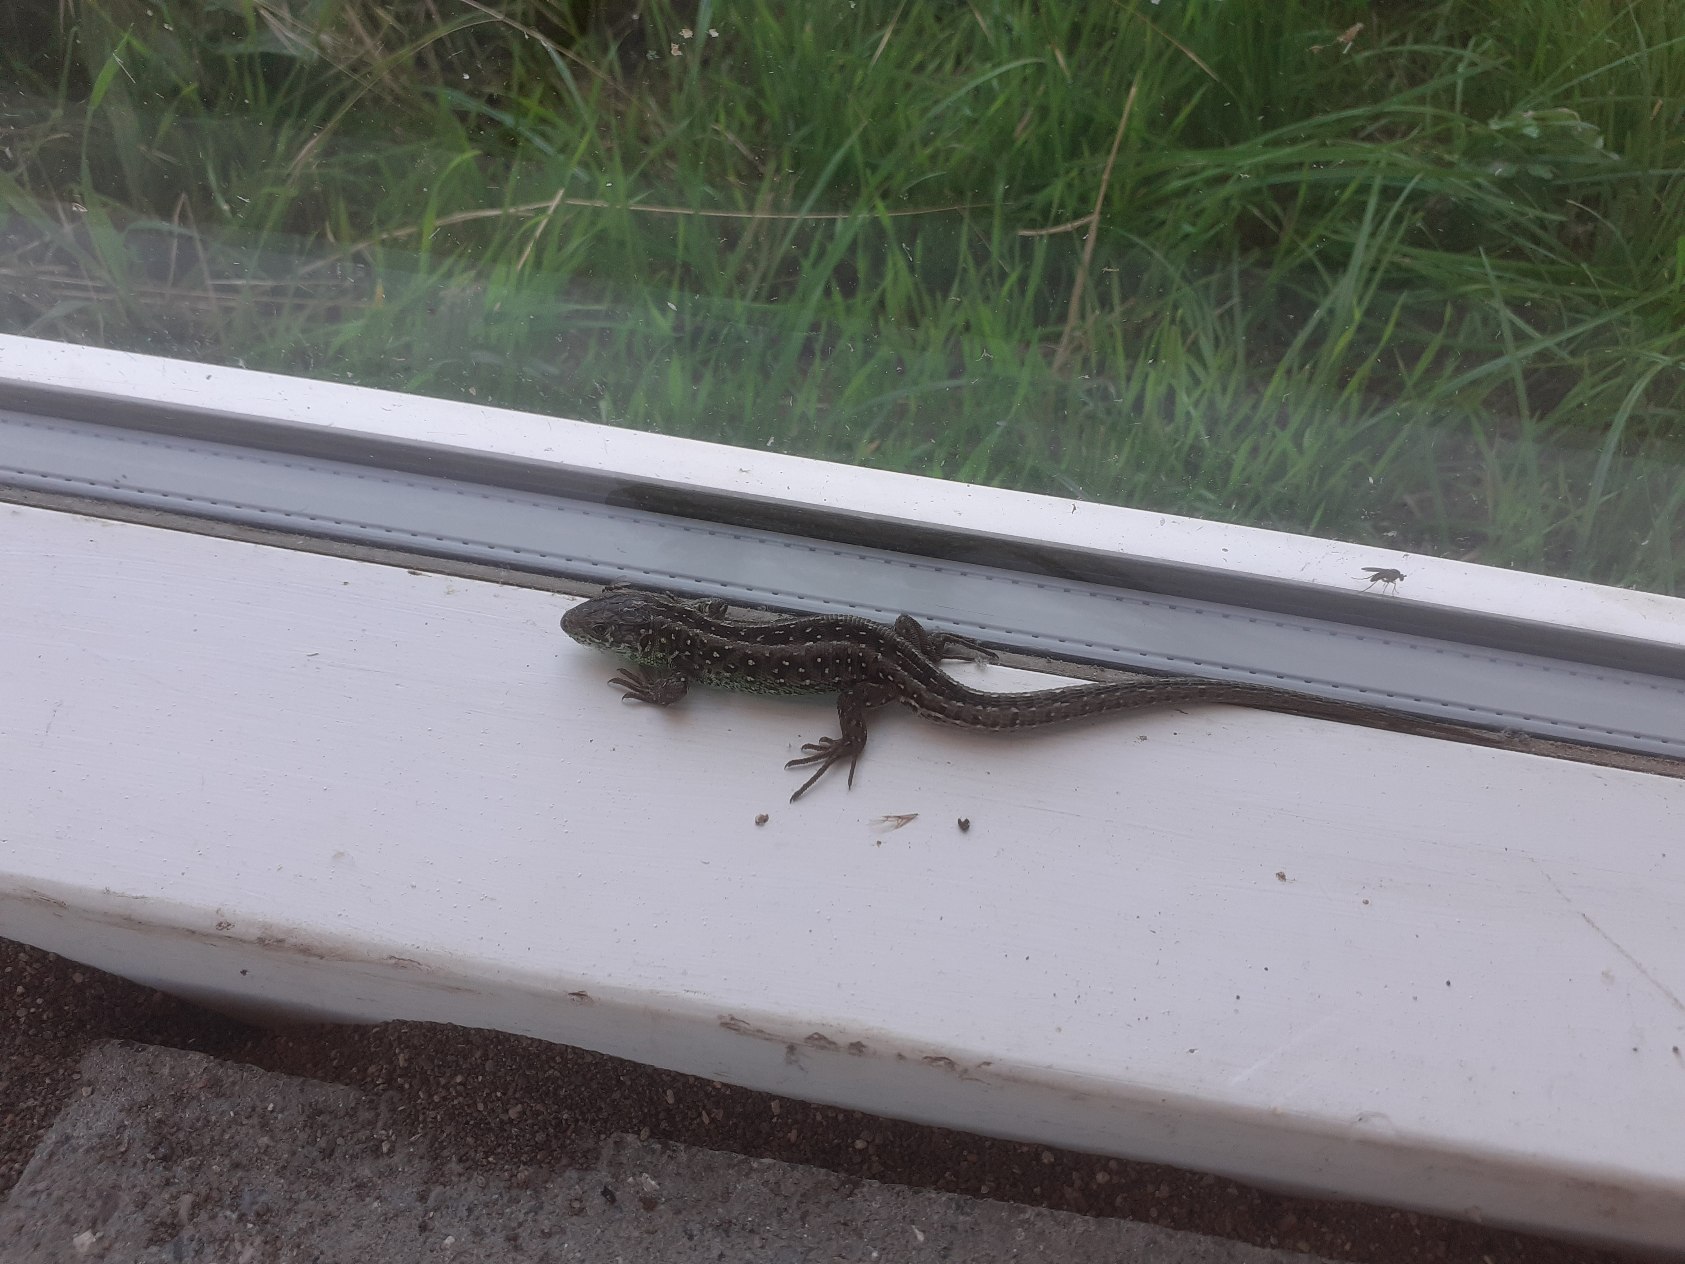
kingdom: Animalia
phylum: Chordata
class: Squamata
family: Lacertidae
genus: Lacerta
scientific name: Lacerta agilis
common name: Markfirben
